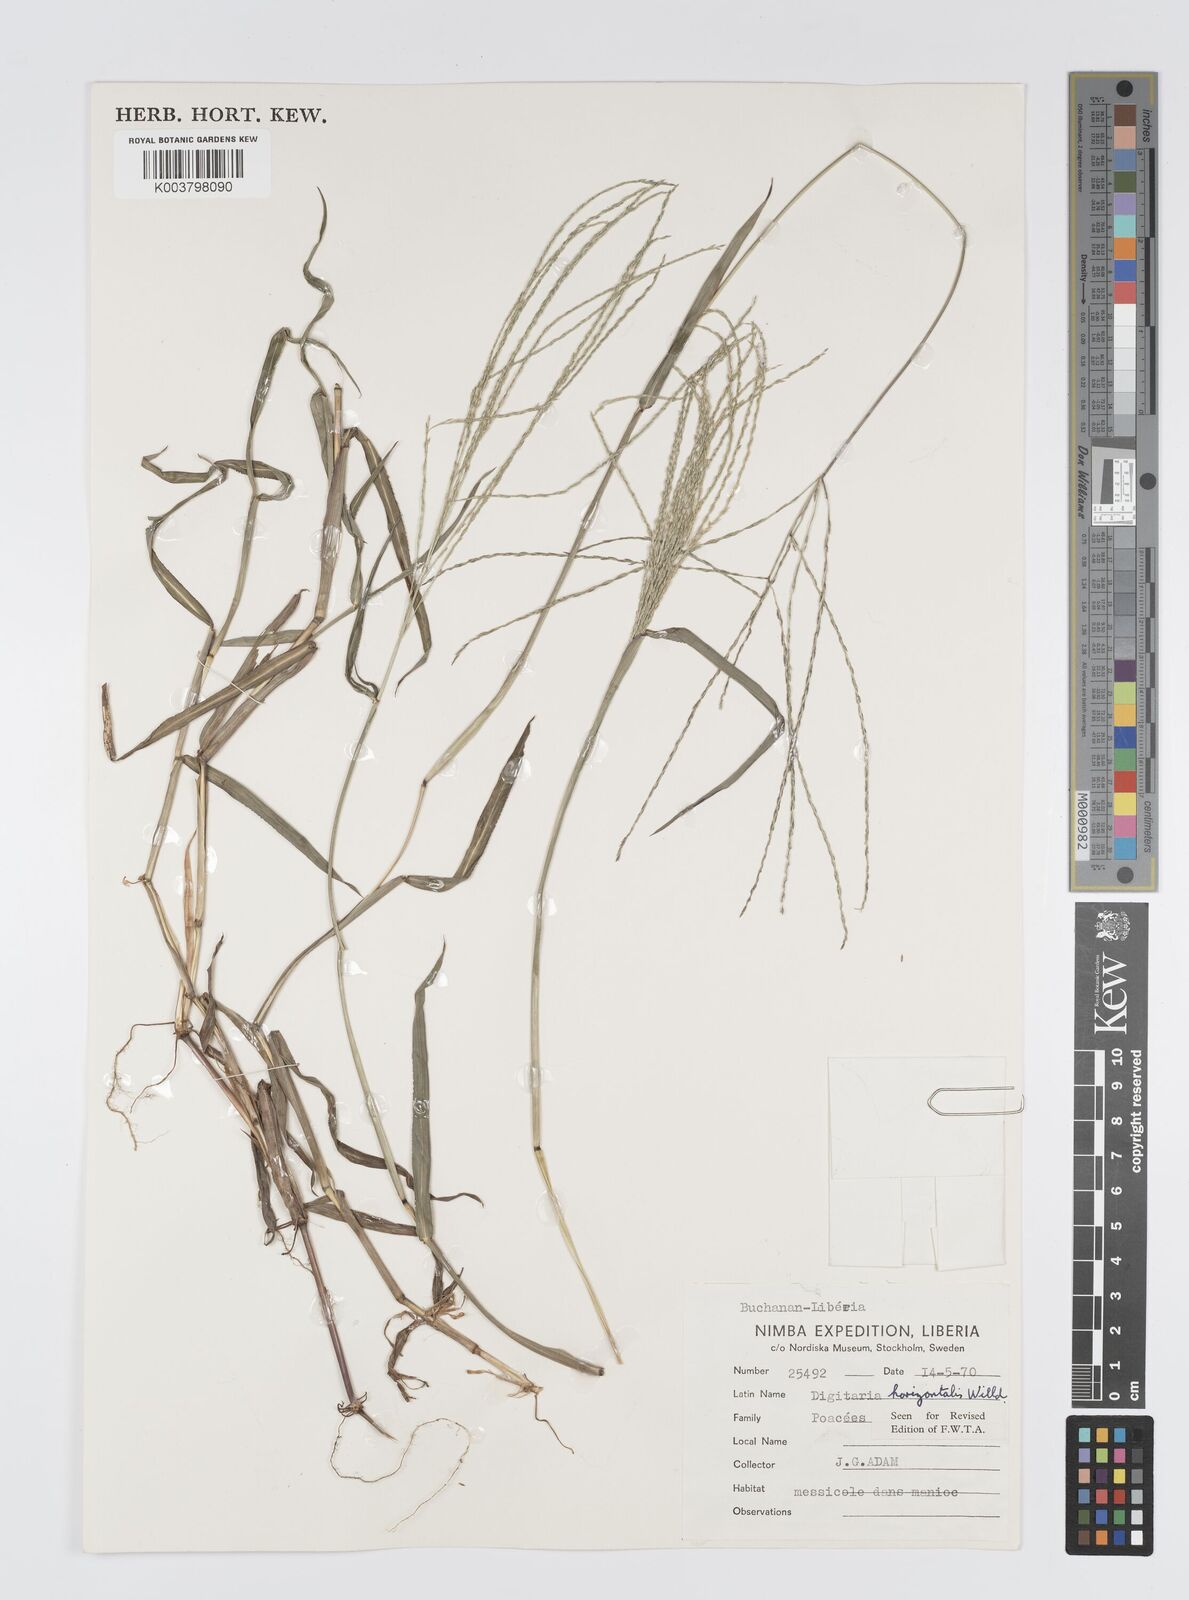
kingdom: Plantae
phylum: Tracheophyta
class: Liliopsida
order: Poales
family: Poaceae
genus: Digitaria
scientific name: Digitaria horizontalis
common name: Jamaican crabgrass
